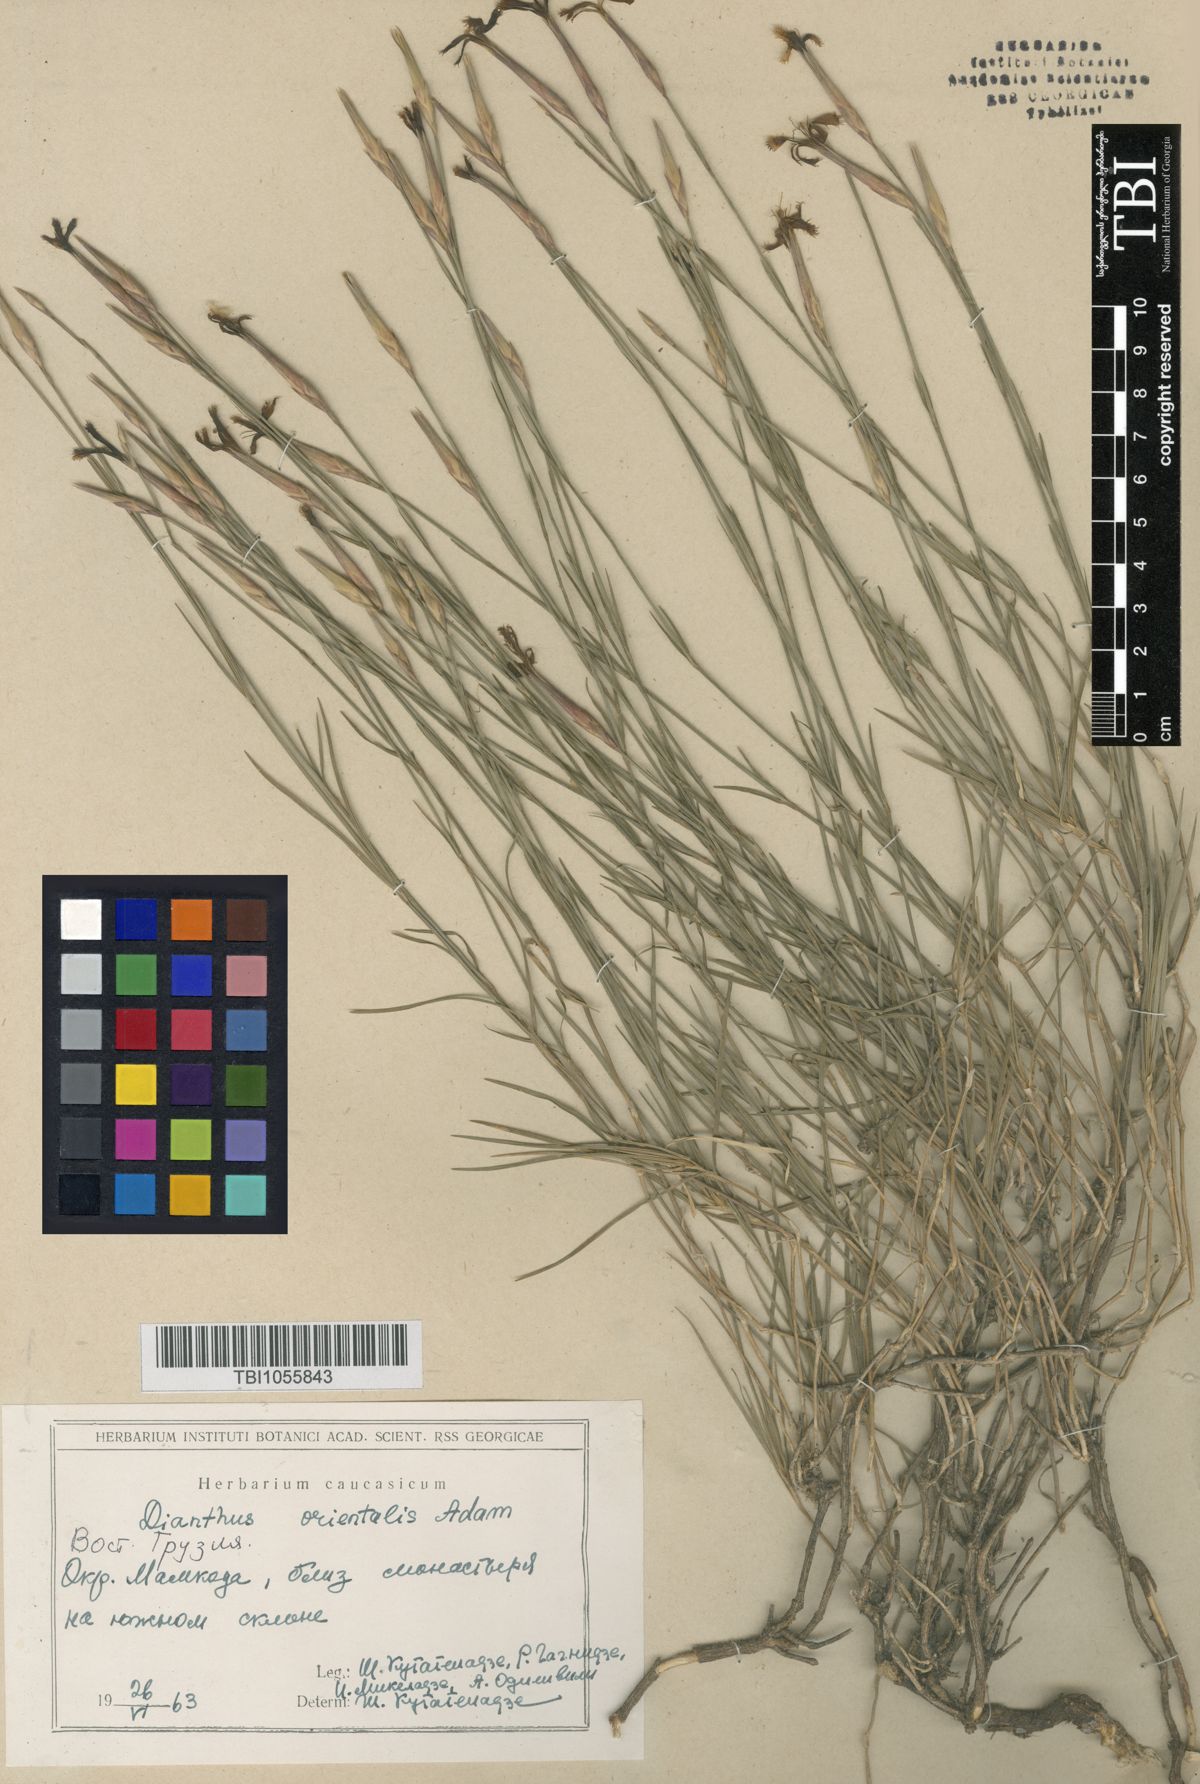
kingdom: Plantae
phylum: Tracheophyta
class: Magnoliopsida
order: Caryophyllales
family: Caryophyllaceae
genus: Dianthus
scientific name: Dianthus orientalis
